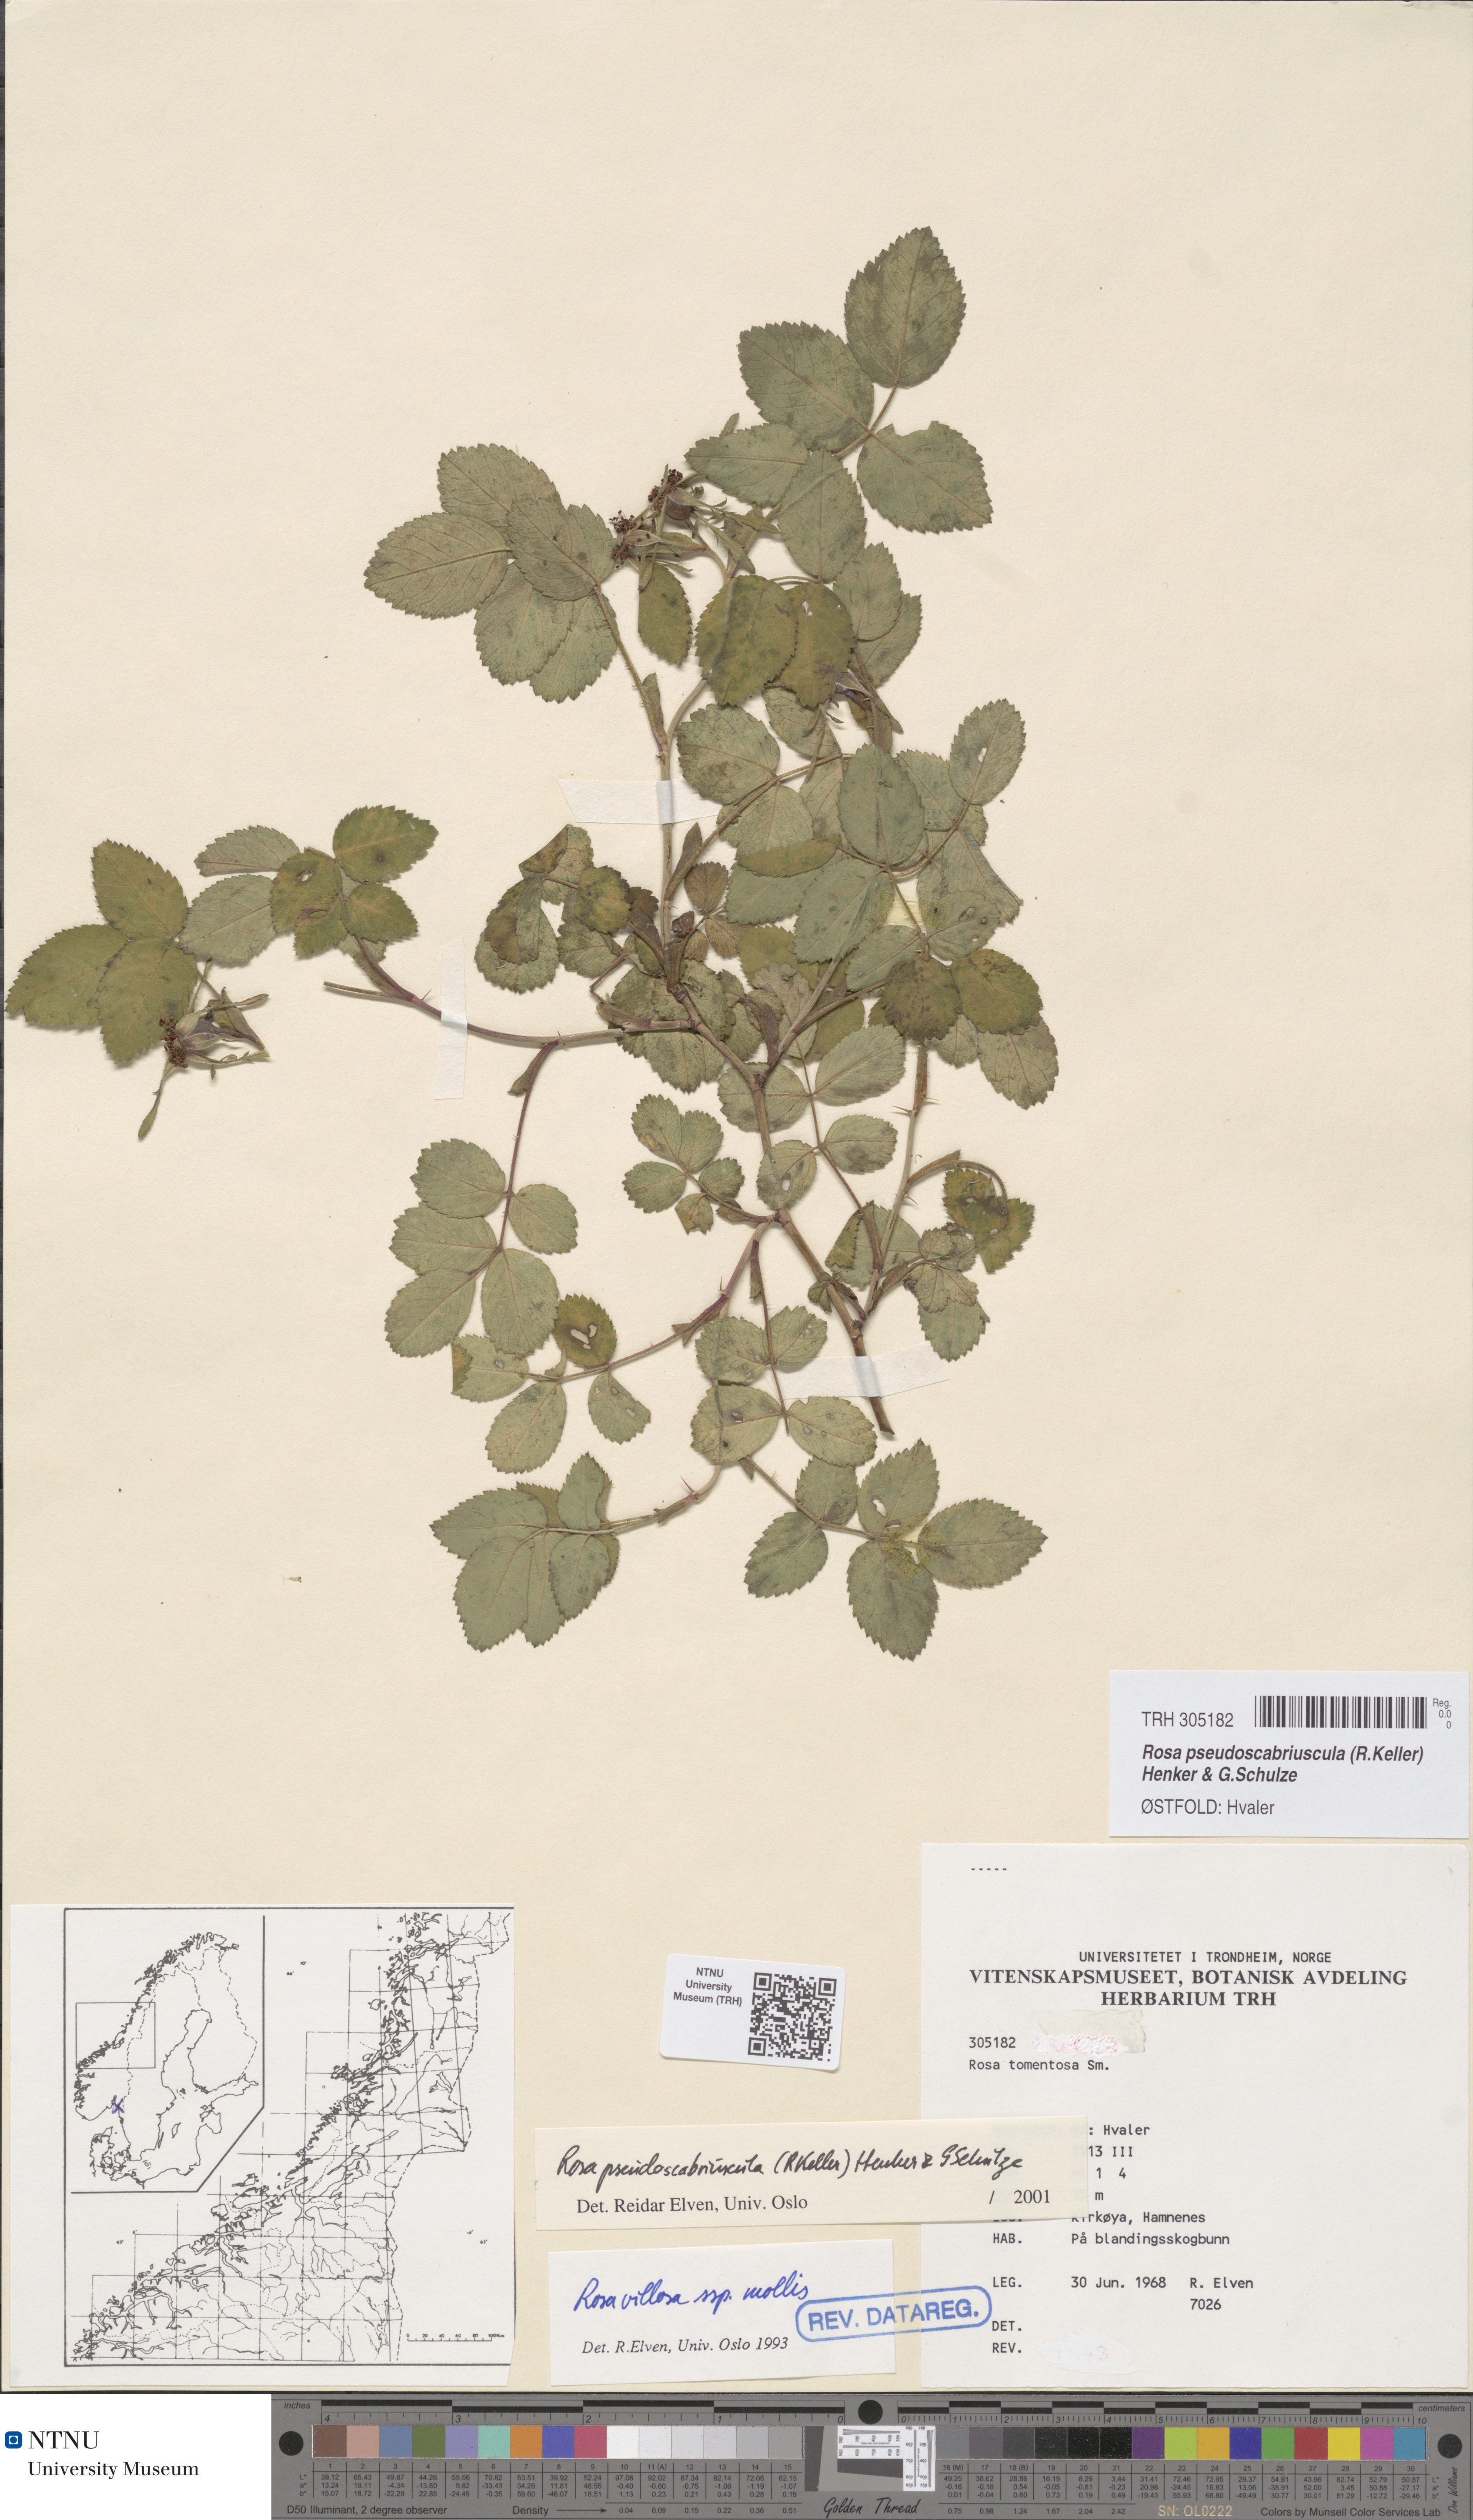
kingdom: Plantae
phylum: Tracheophyta
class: Magnoliopsida
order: Rosales
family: Rosaceae
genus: Rosa
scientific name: Rosa suberectiformis
